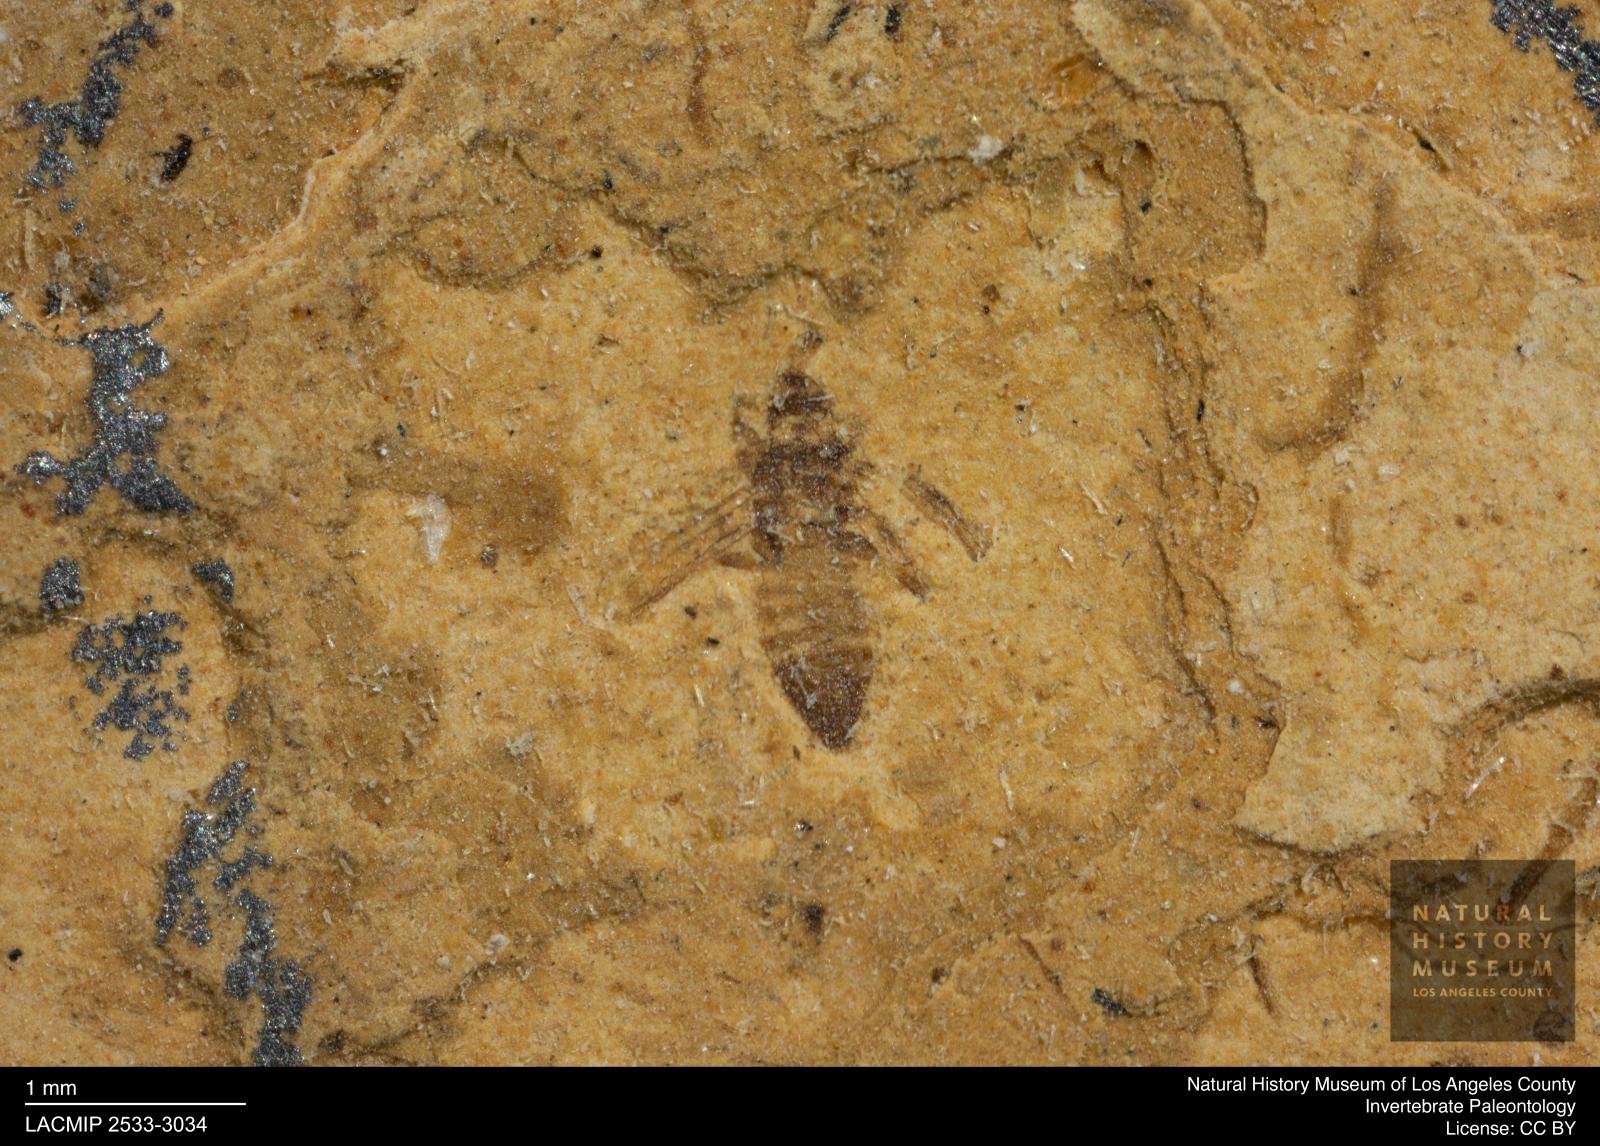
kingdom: Animalia
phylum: Arthropoda
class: Insecta
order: Thysanoptera
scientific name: Thysanoptera
